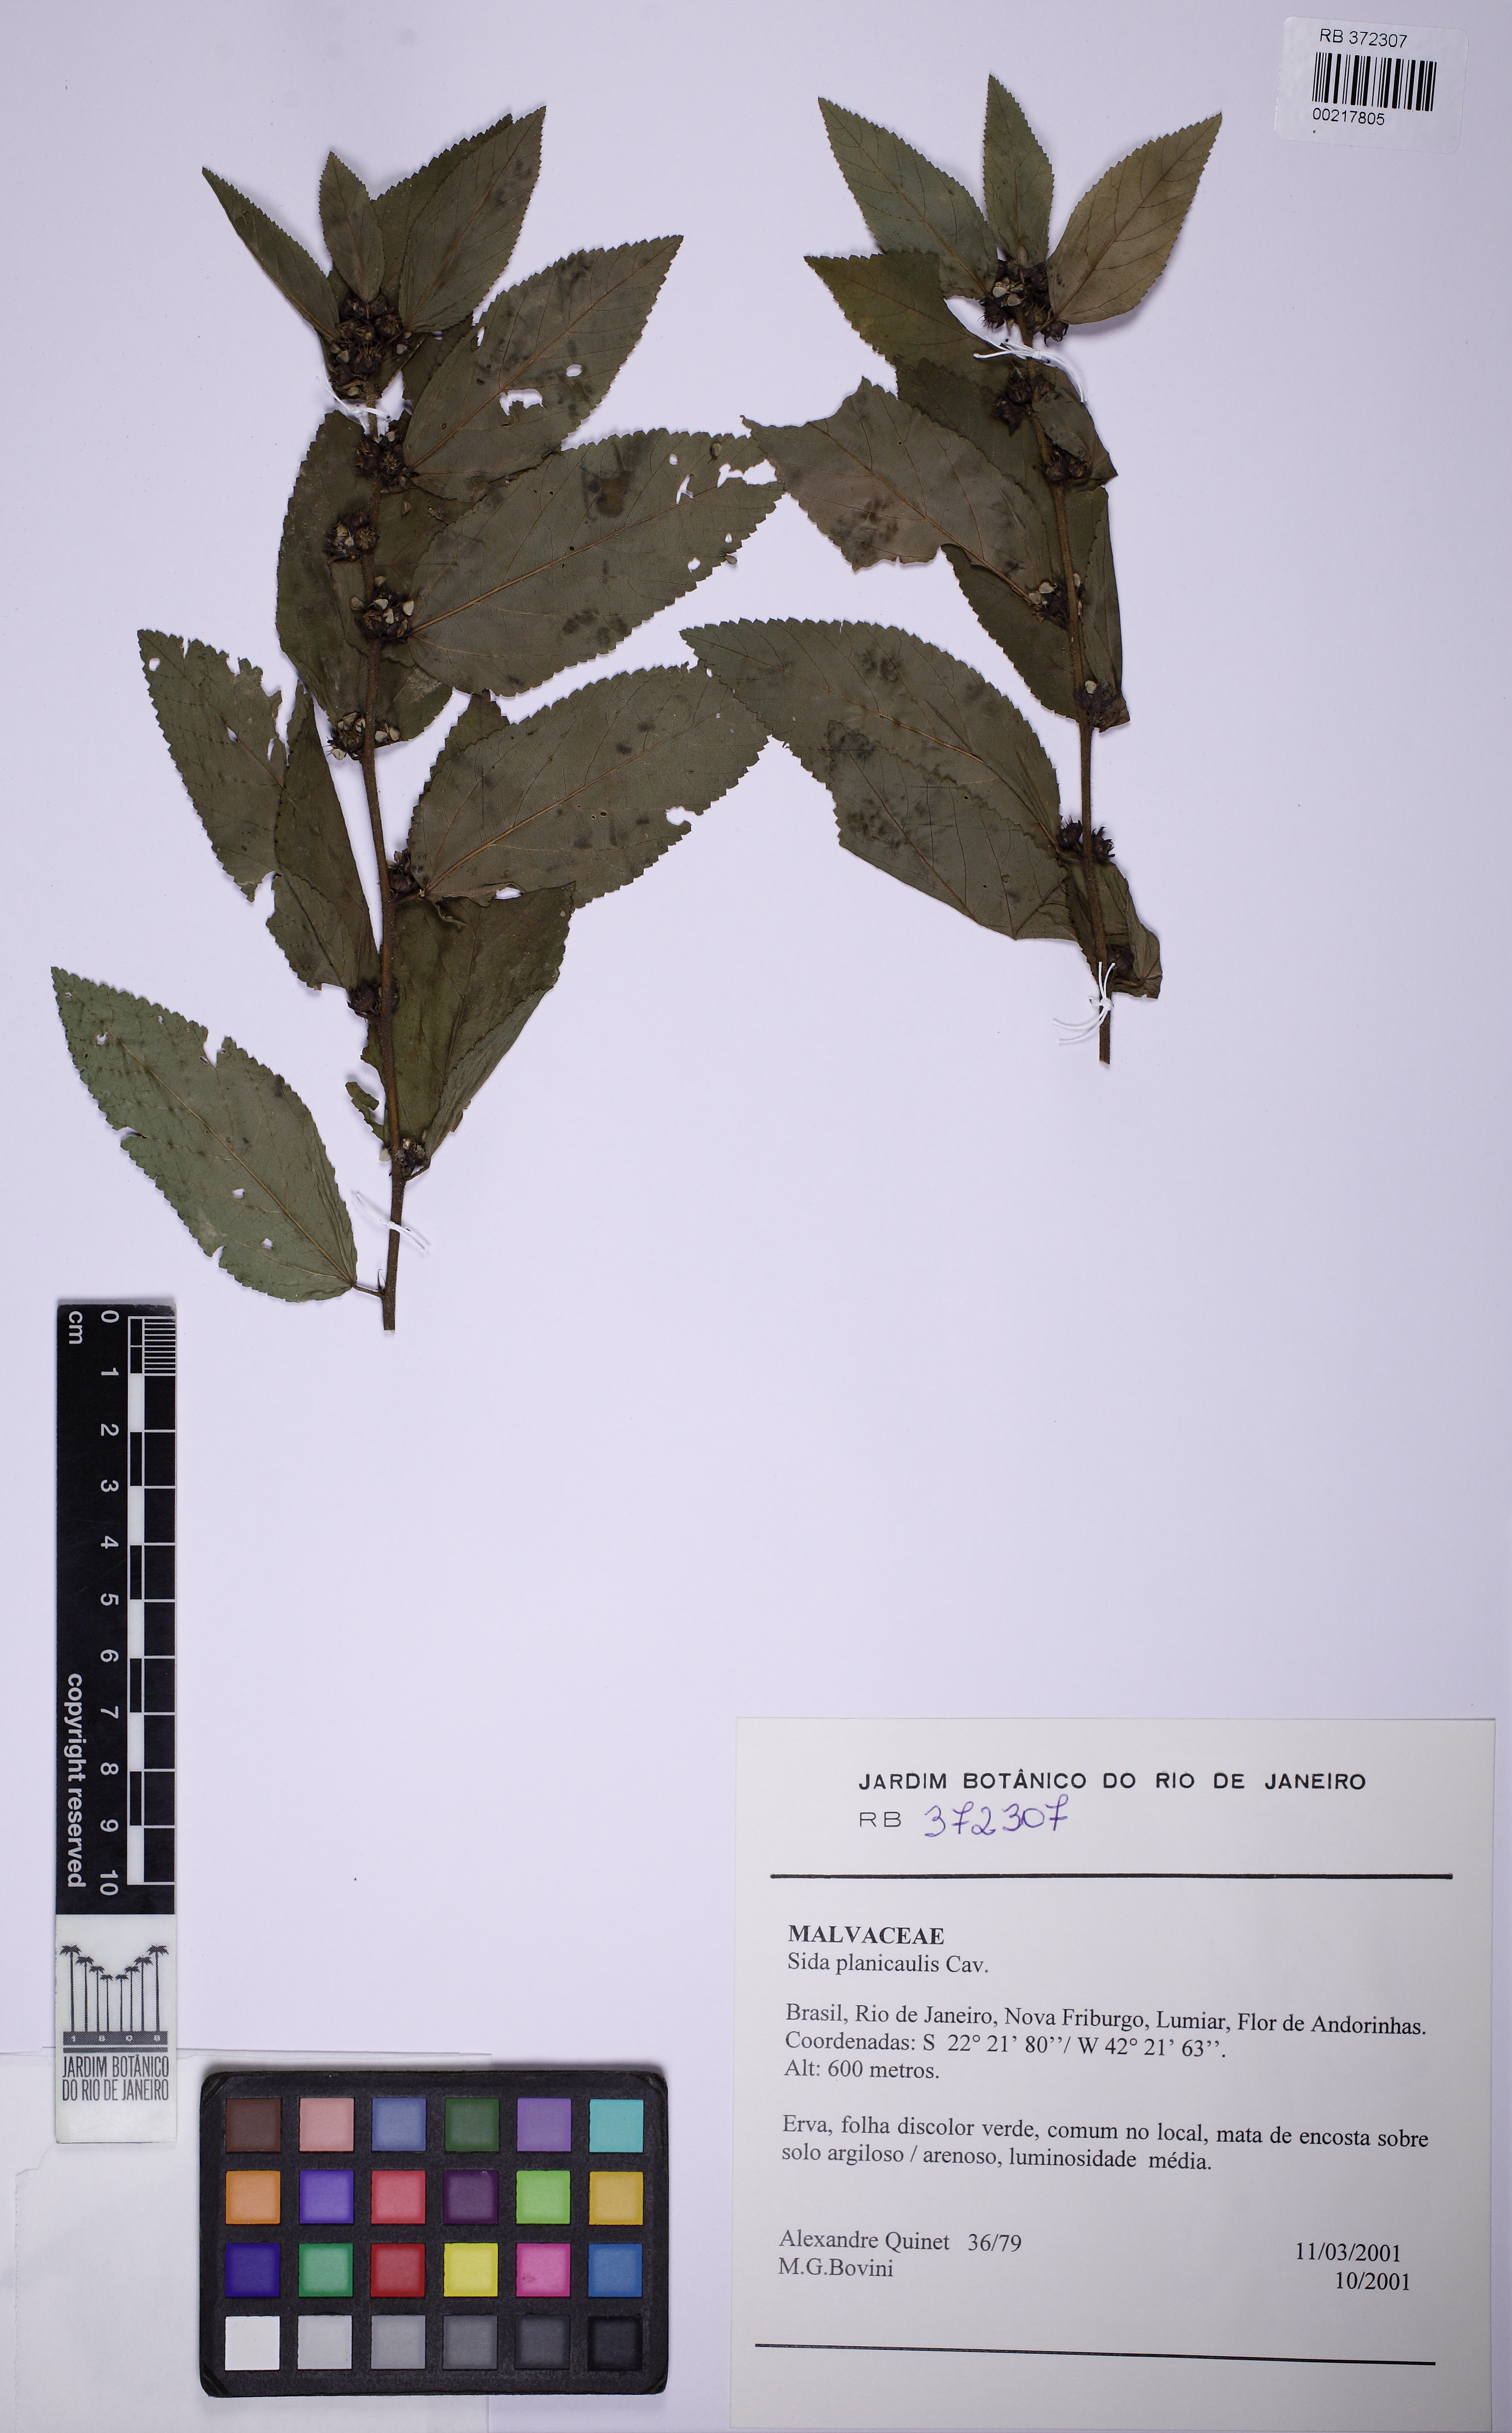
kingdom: Plantae
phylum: Tracheophyta
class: Magnoliopsida
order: Malvales
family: Malvaceae
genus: Sida
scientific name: Sida planicaulis
